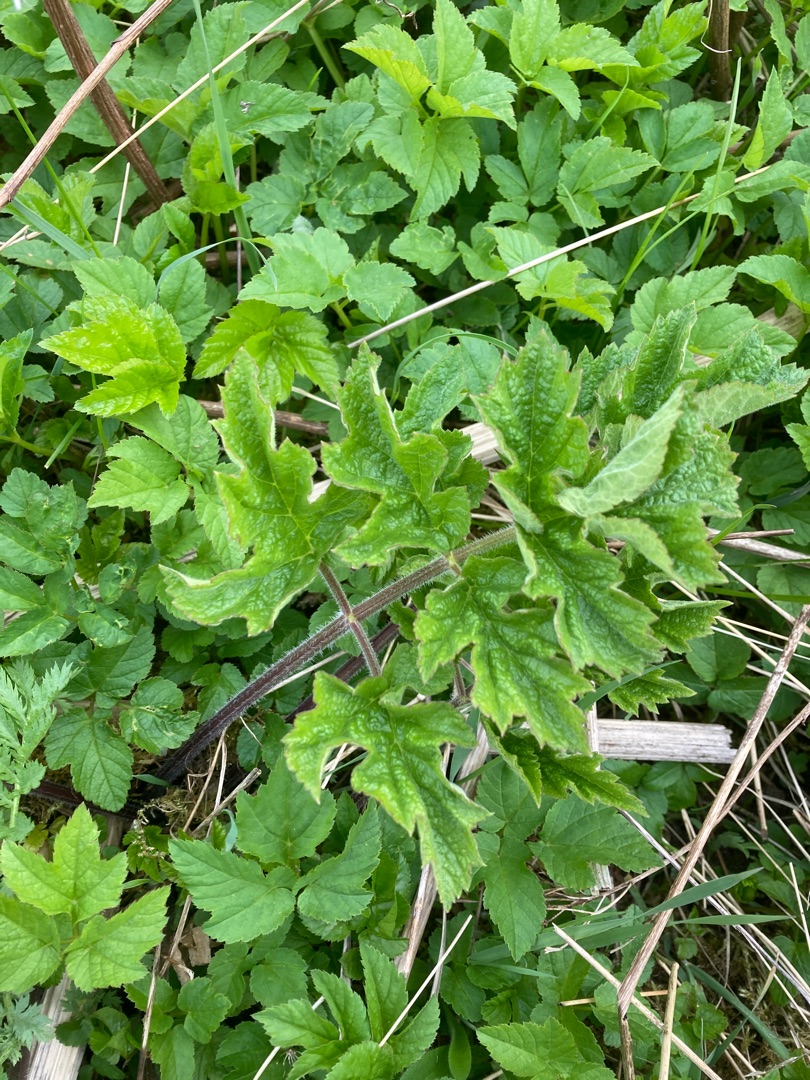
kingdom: Plantae
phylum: Tracheophyta
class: Magnoliopsida
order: Apiales
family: Apiaceae
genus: Heracleum
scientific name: Heracleum sphondylium
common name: Almindelig bjørneklo
